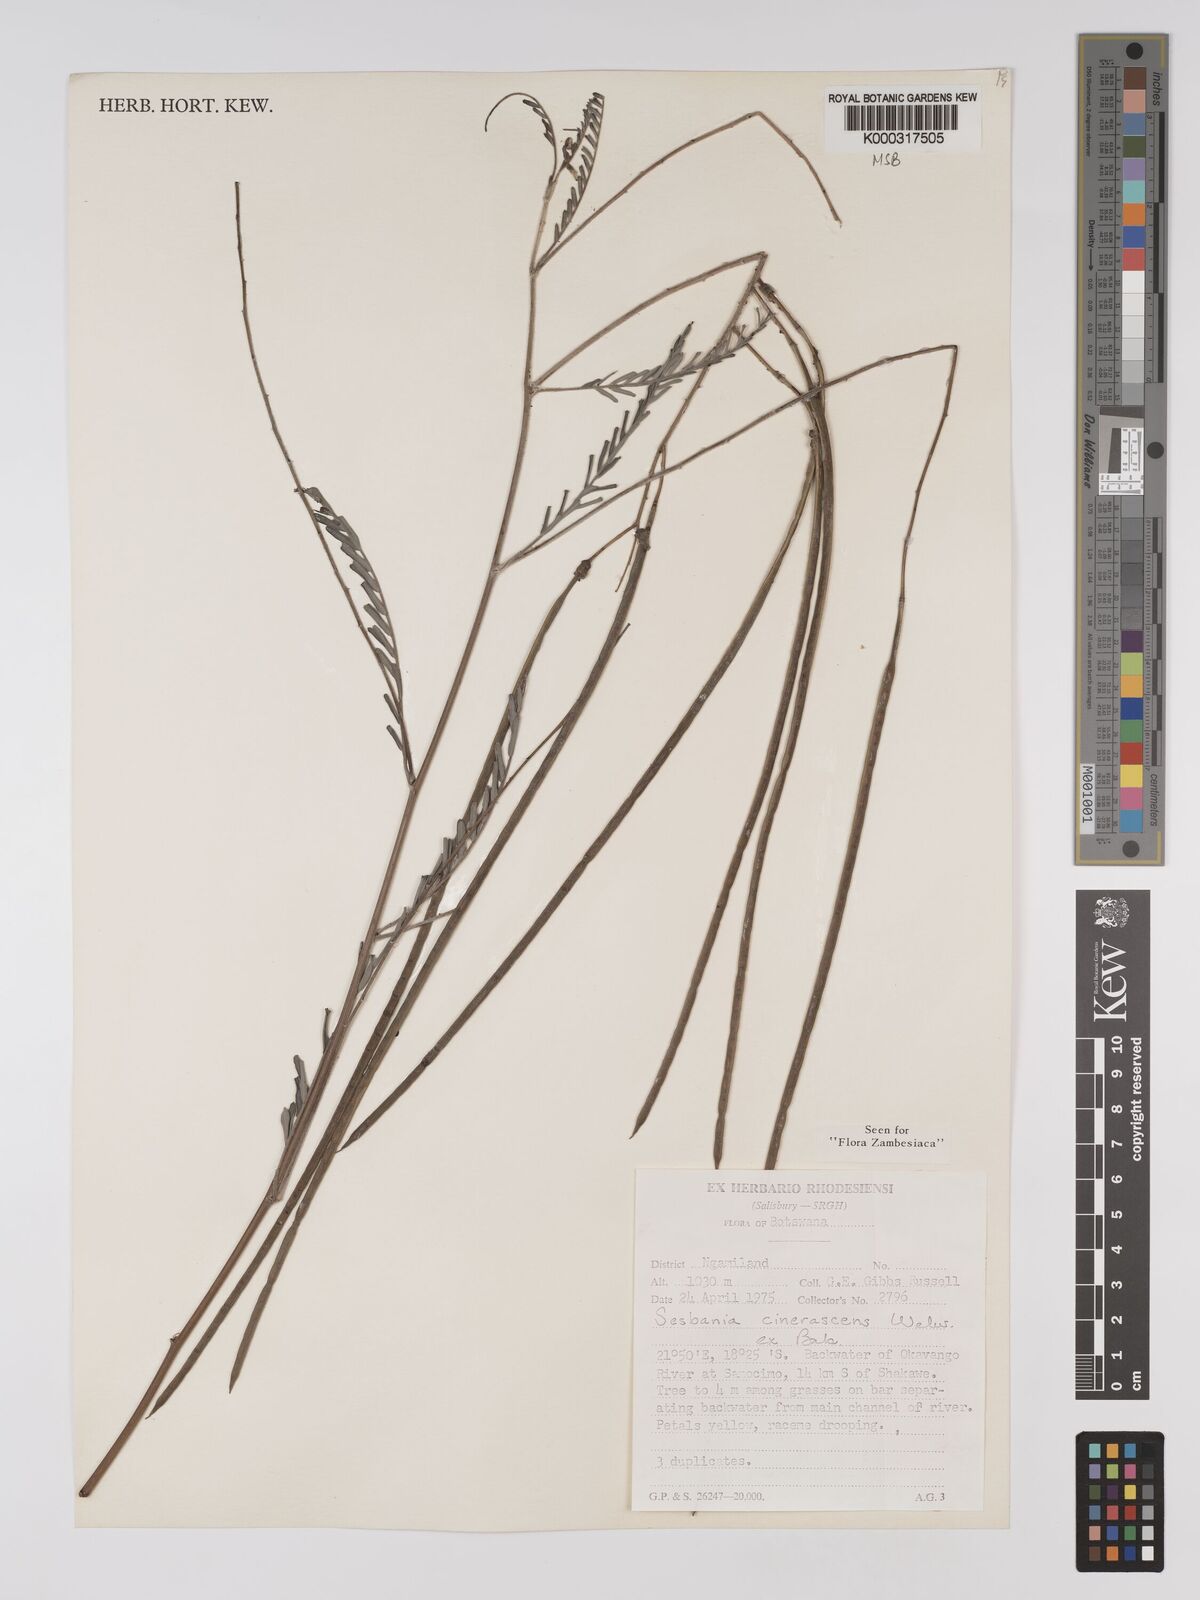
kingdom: Plantae
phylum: Tracheophyta
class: Magnoliopsida
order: Fabales
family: Fabaceae
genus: Sesbania
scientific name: Sesbania cinerascens
